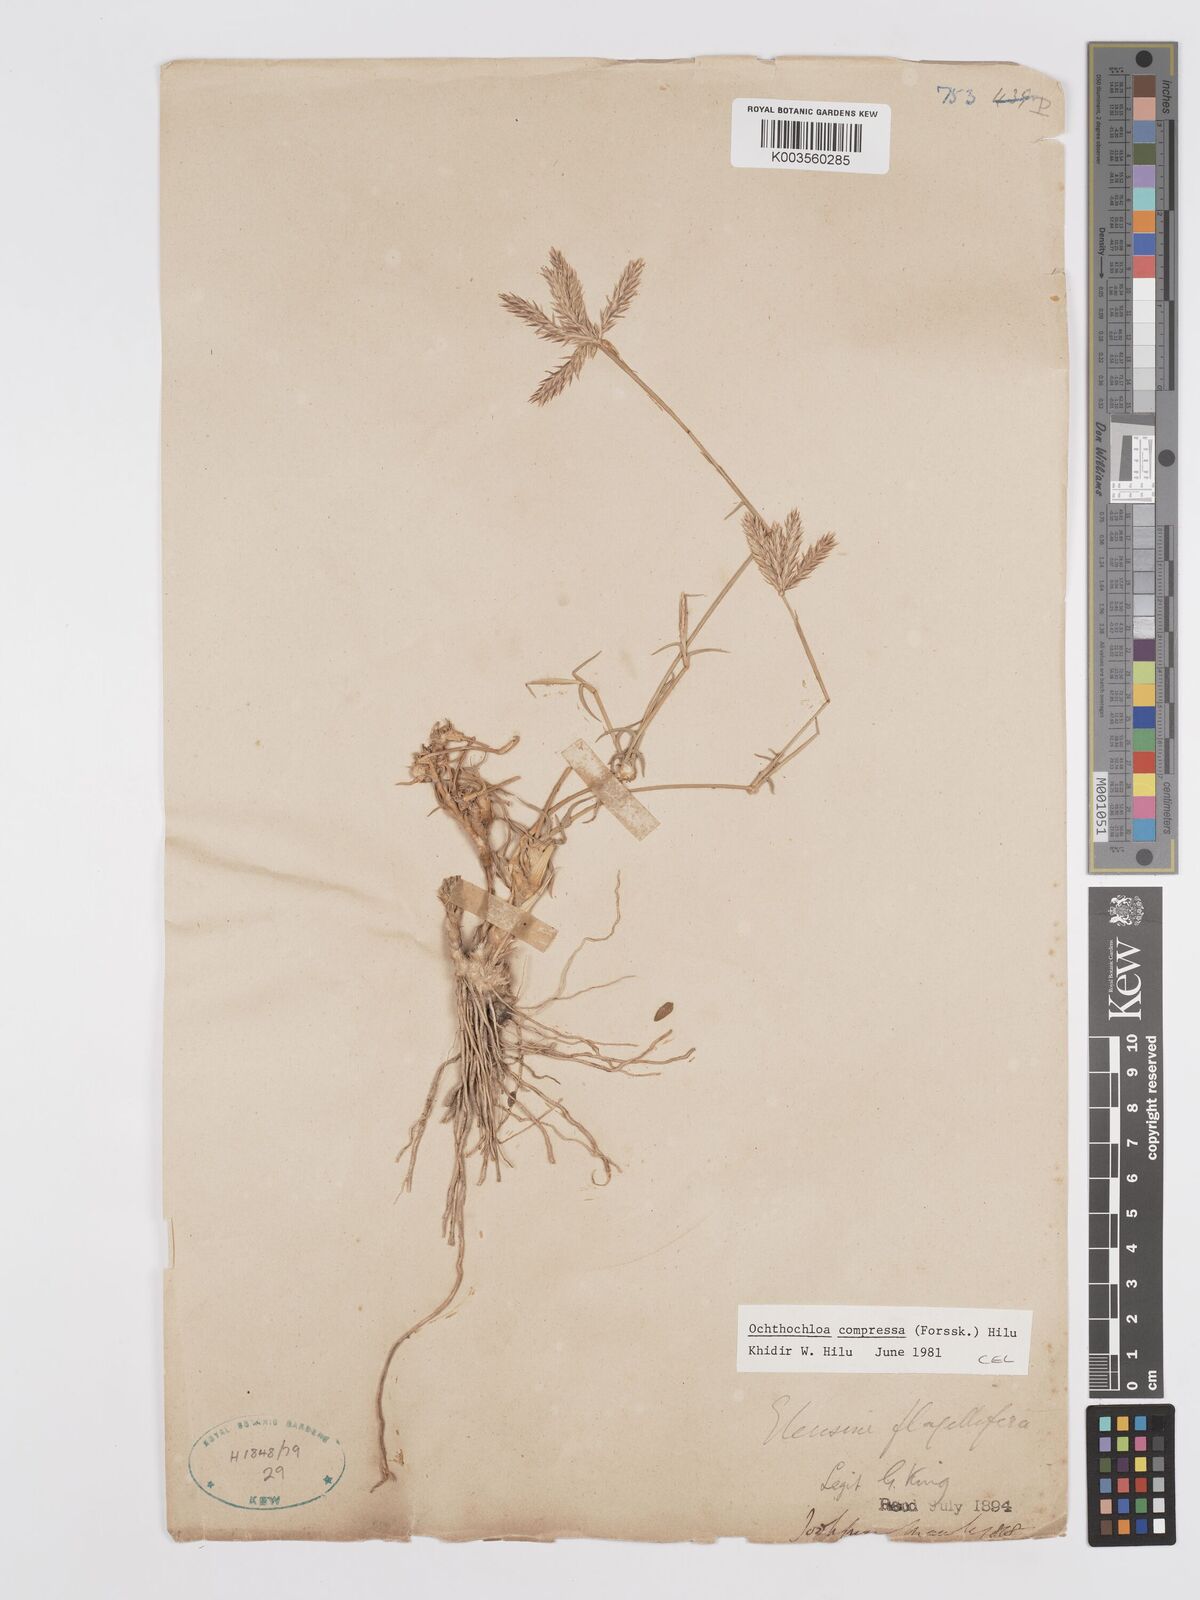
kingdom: Plantae
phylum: Tracheophyta
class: Liliopsida
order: Poales
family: Poaceae
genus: Chloris
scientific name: Chloris flagellifera
